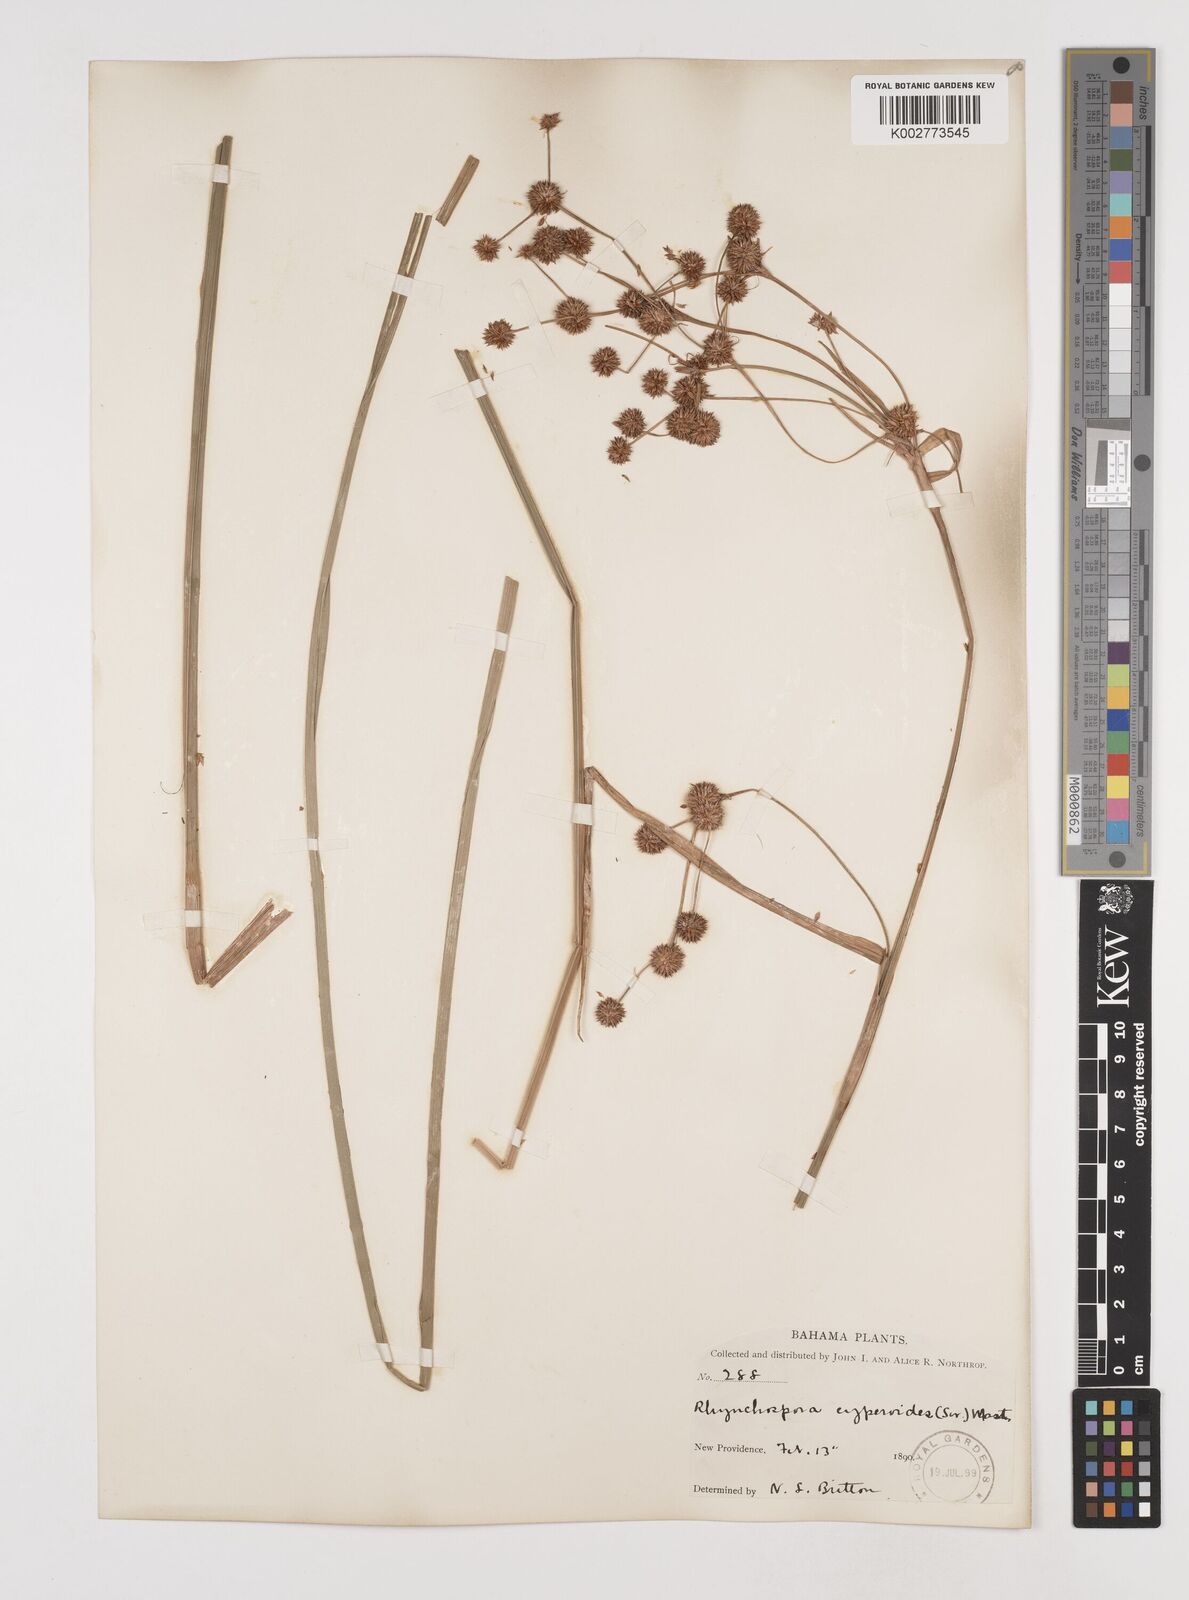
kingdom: Plantae
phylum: Tracheophyta
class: Liliopsida
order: Poales
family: Cyperaceae
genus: Rhynchospora
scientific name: Rhynchospora holoschoenoides
